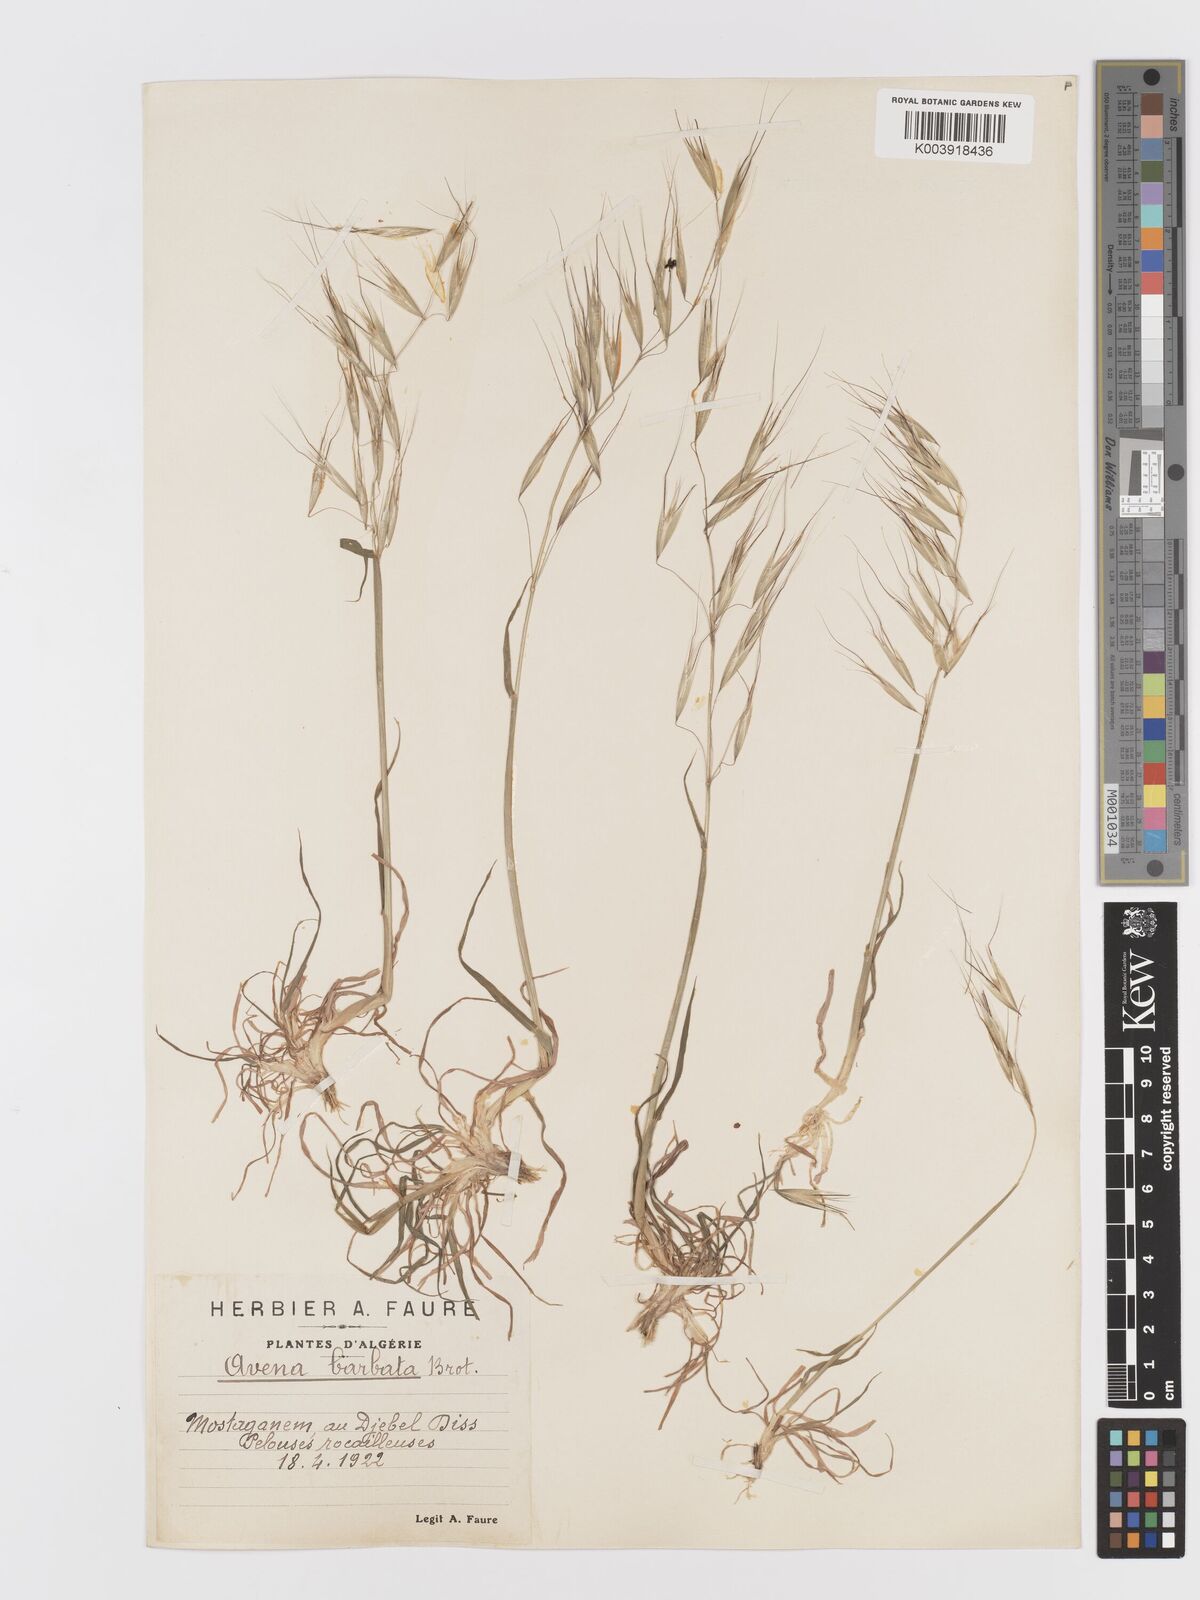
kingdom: Plantae
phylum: Tracheophyta
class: Liliopsida
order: Poales
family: Poaceae
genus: Avena
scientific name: Avena
